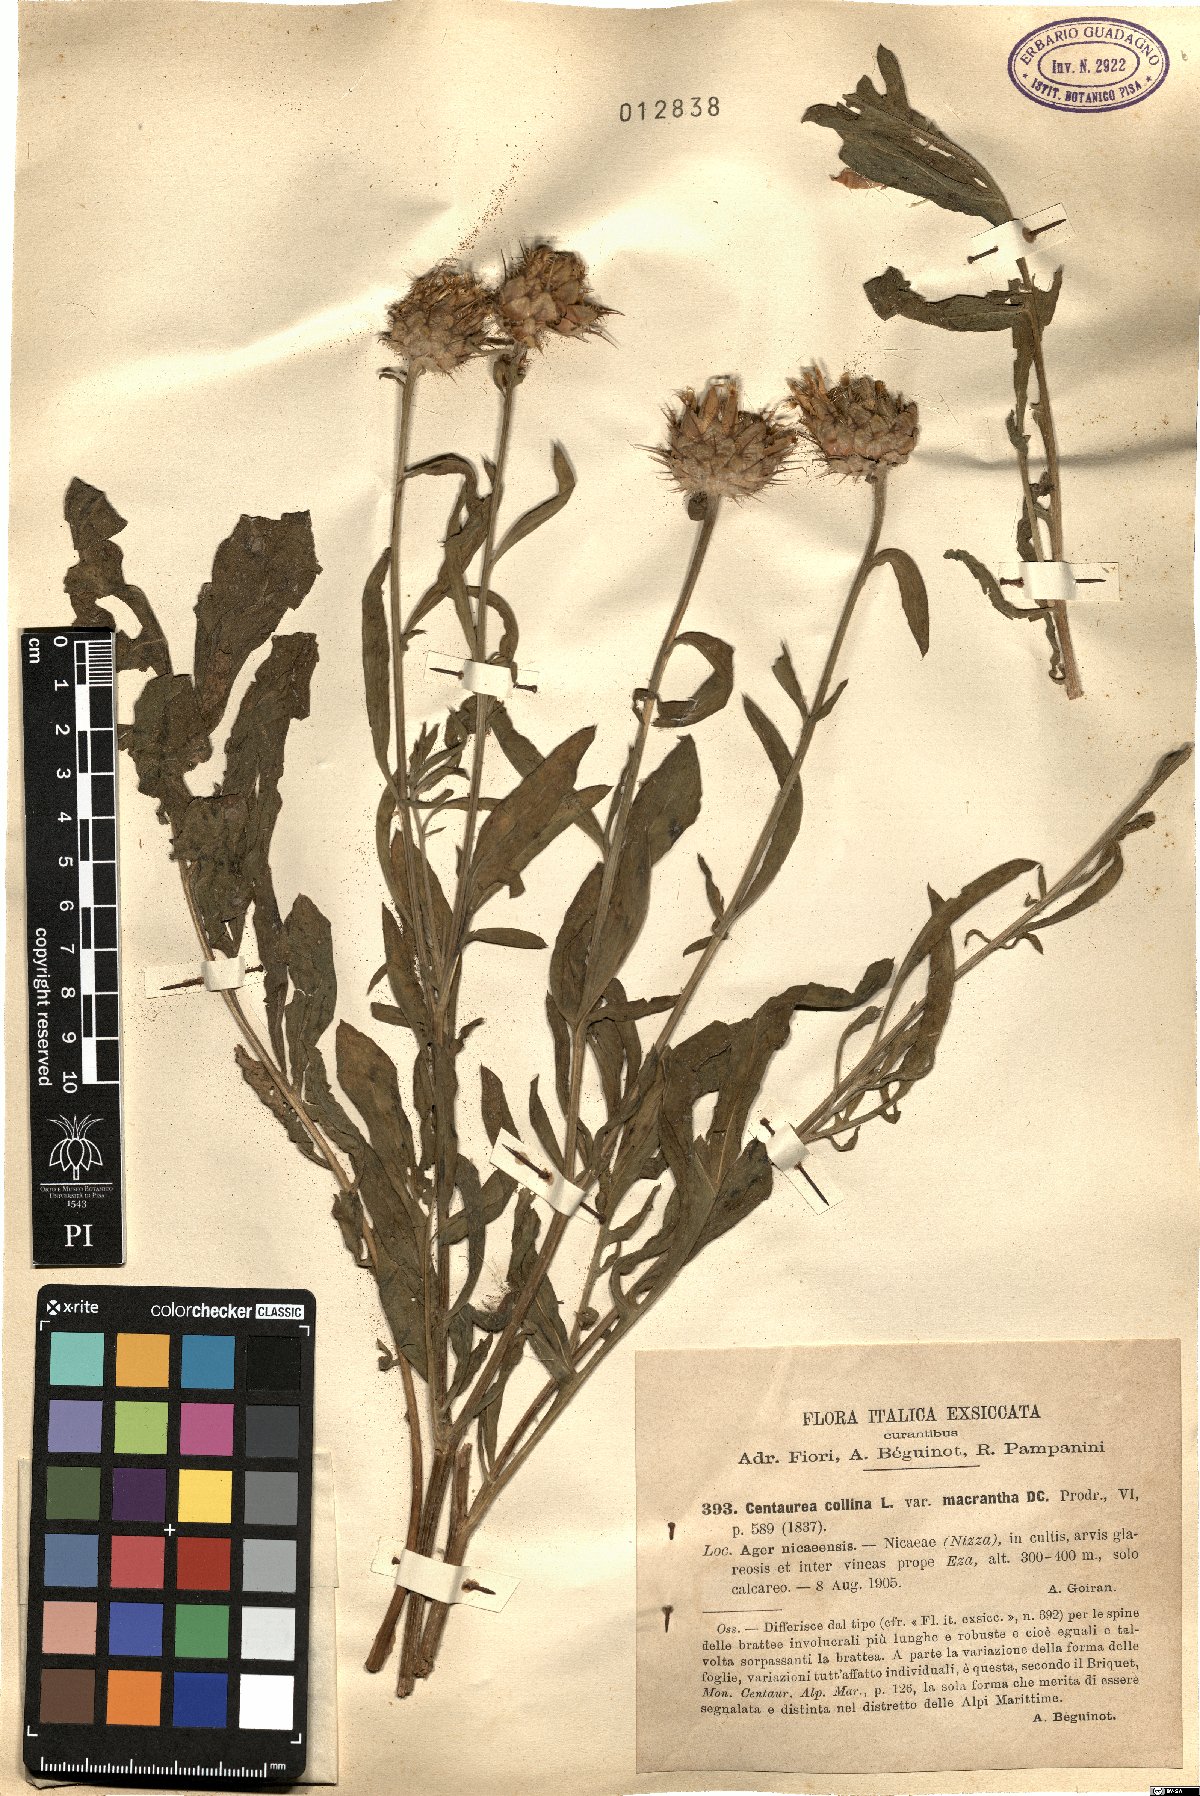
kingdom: Plantae
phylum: Tracheophyta
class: Magnoliopsida
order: Asterales
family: Asteraceae
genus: Centaurea
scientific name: Centaurea salonitana
